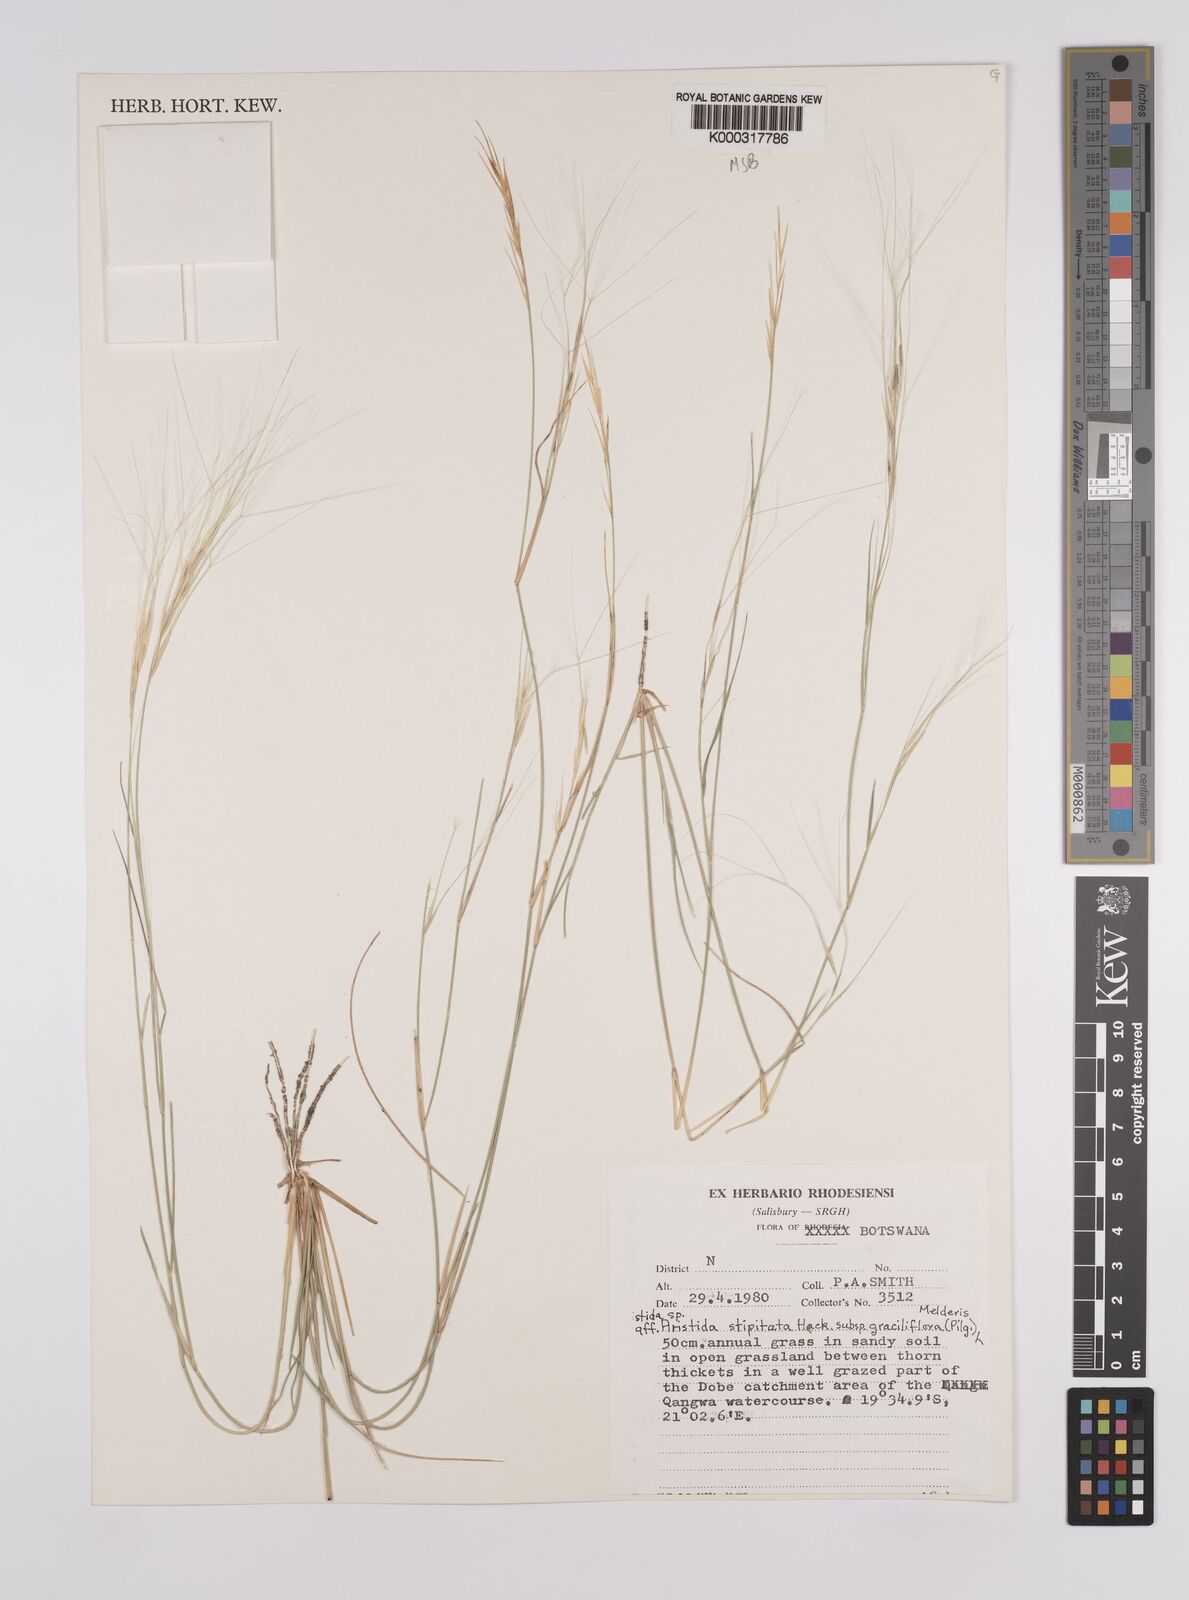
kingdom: Plantae
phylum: Tracheophyta
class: Liliopsida
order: Poales
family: Poaceae
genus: Aristida
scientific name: Aristida stipitata
